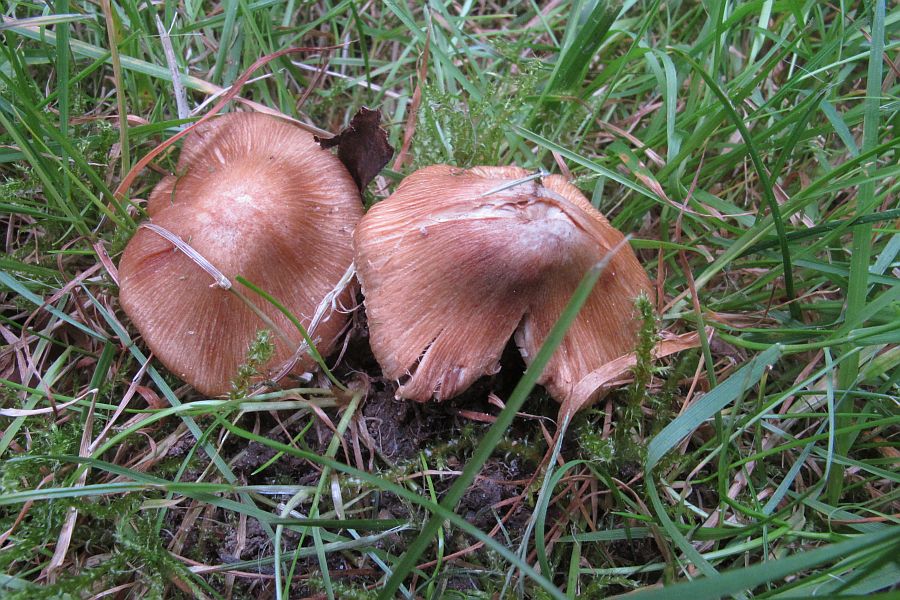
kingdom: Fungi
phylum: Basidiomycota
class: Agaricomycetes
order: Agaricales
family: Inocybaceae
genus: Inosperma
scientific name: Inosperma
